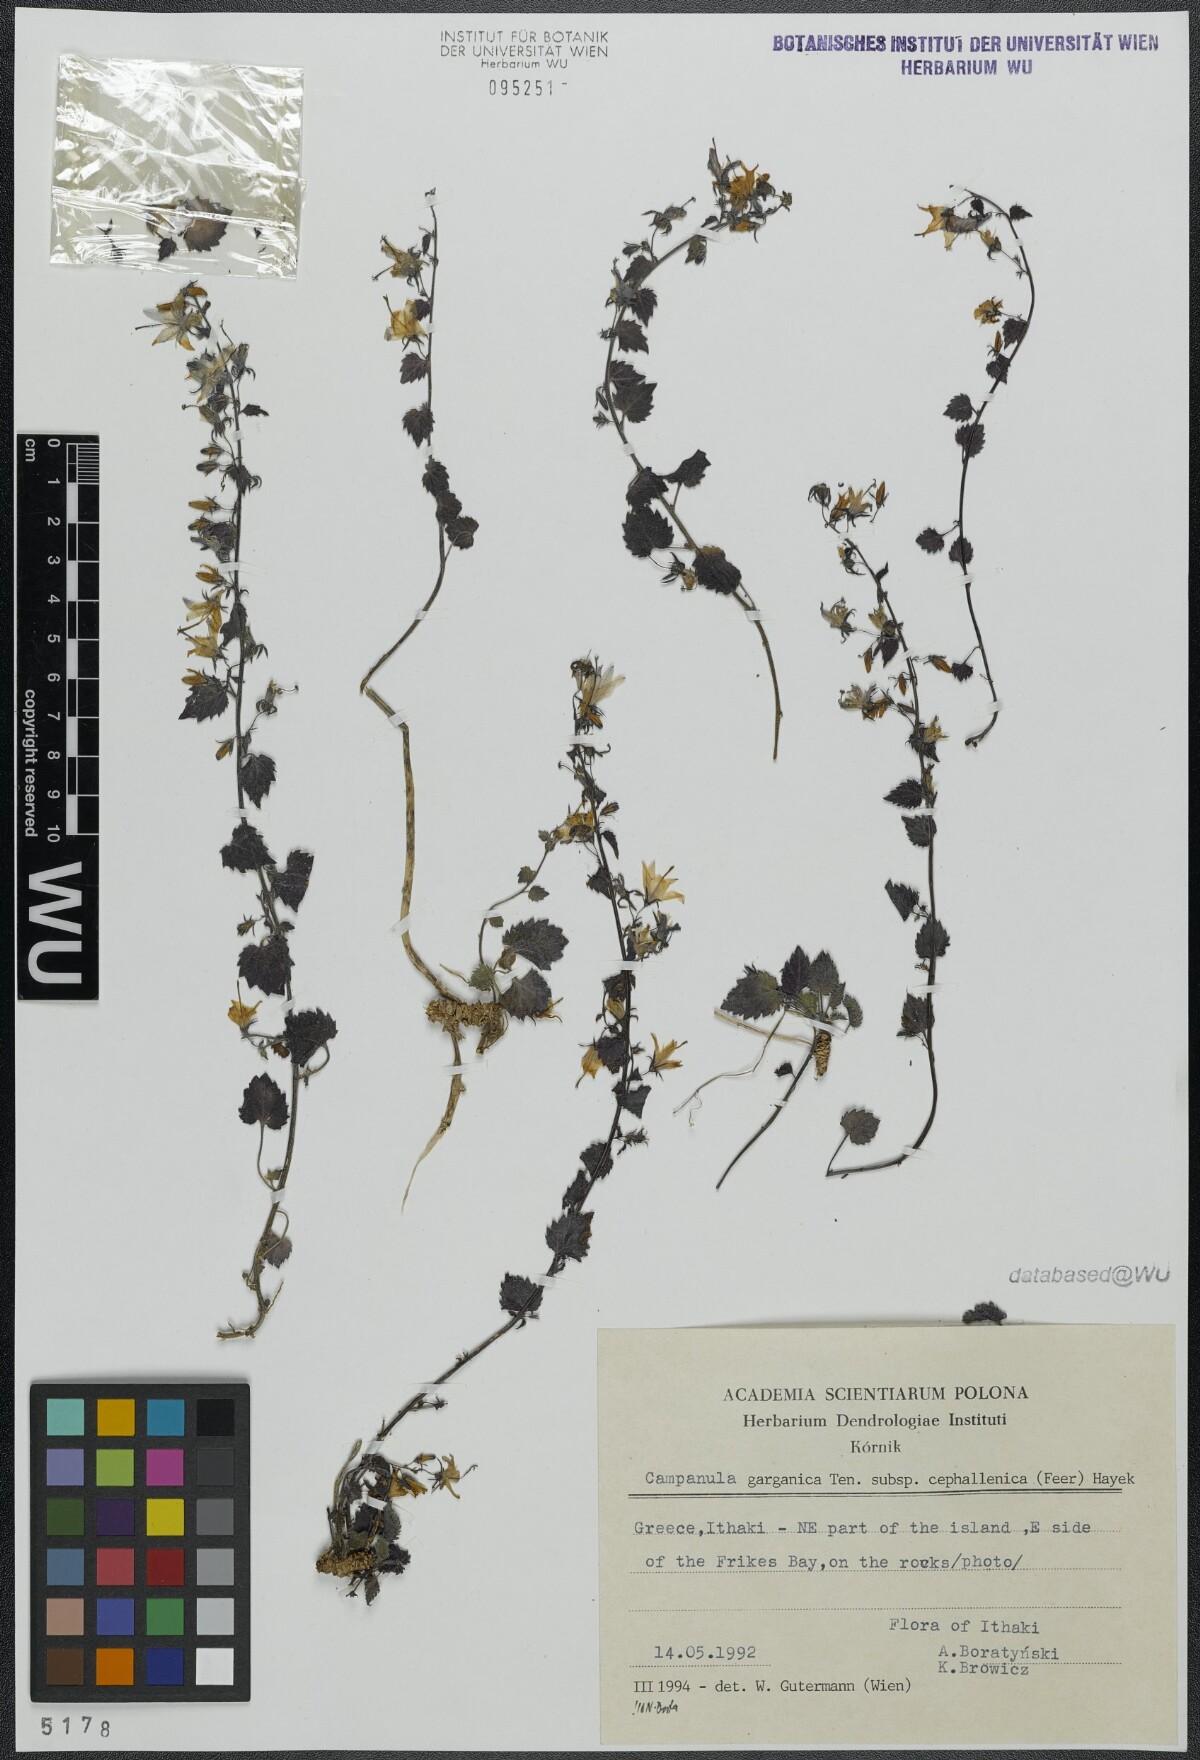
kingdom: Plantae
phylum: Tracheophyta
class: Magnoliopsida
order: Asterales
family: Campanulaceae
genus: Campanula
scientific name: Campanula garganica
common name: Adriatic bellflower
